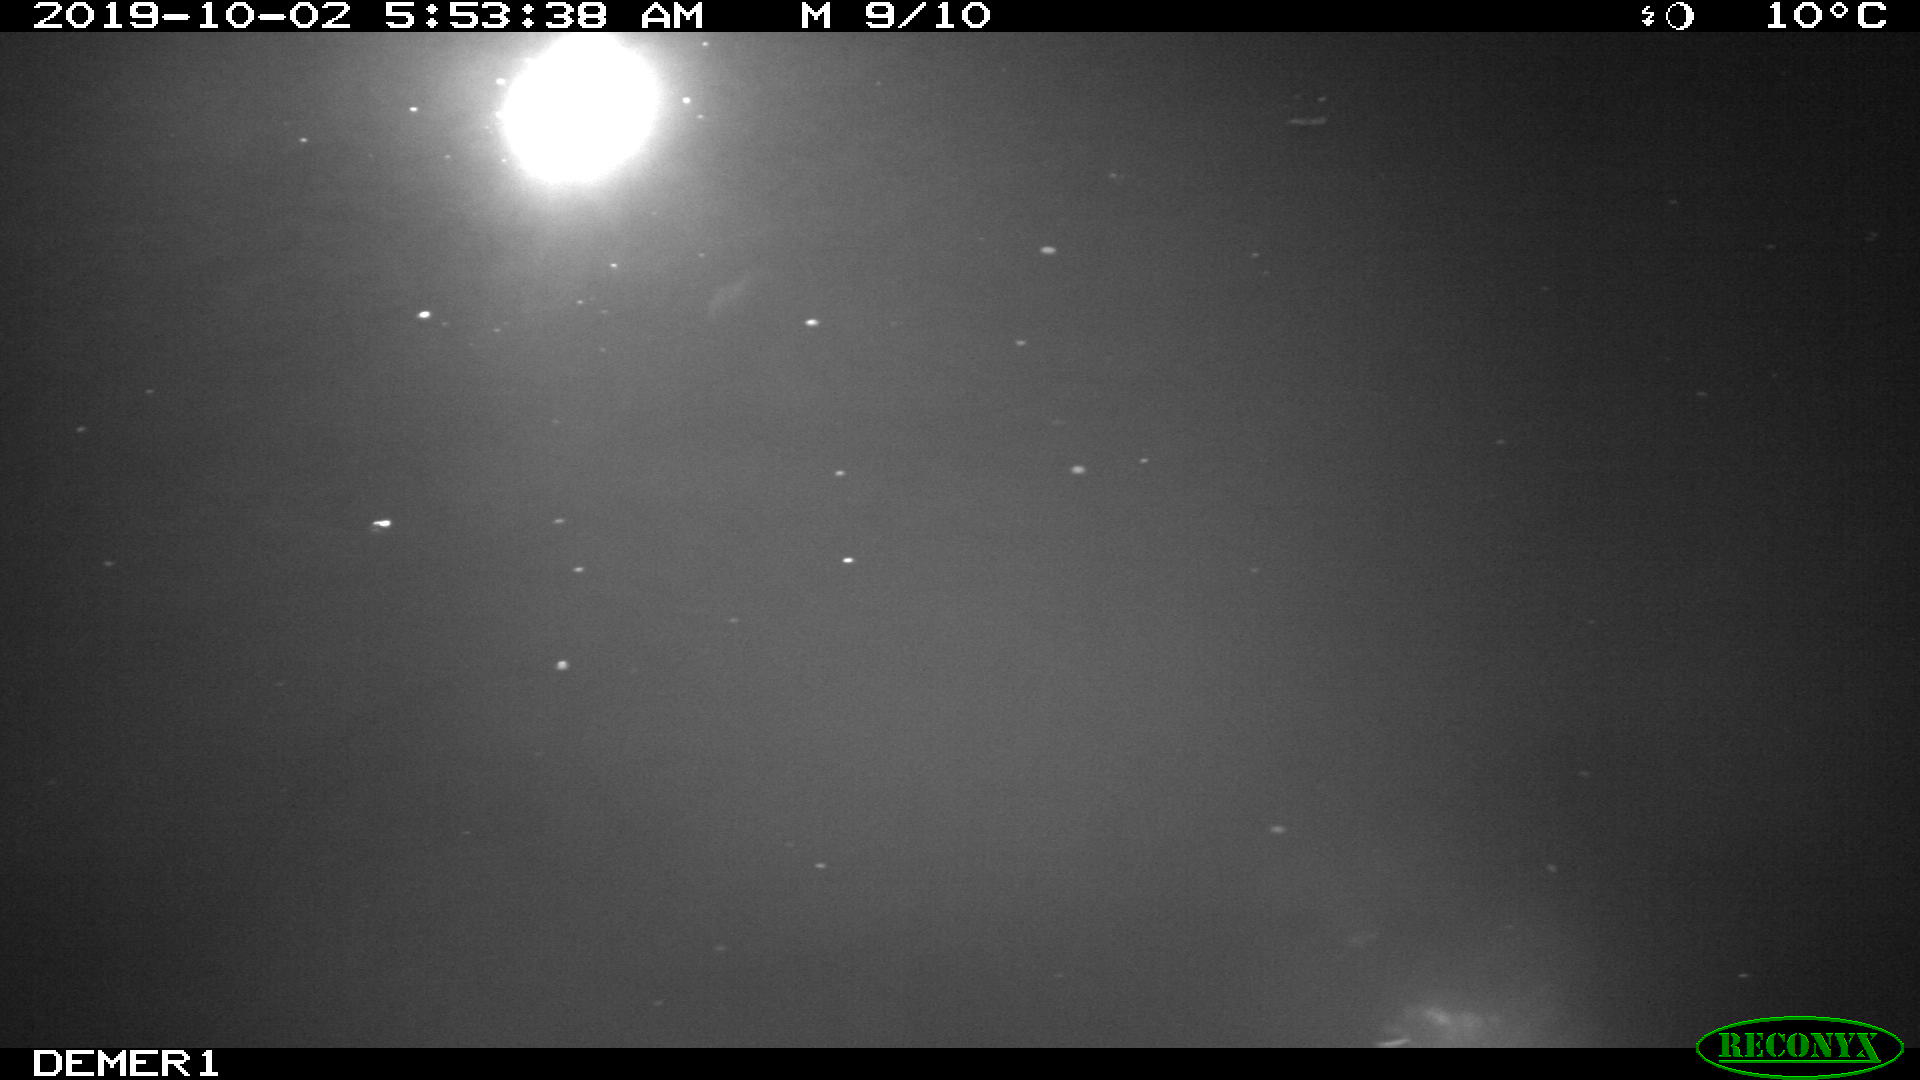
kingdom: Animalia
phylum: Chordata
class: Aves
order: Anseriformes
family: Anatidae
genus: Anas
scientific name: Anas platyrhynchos
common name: Mallard
